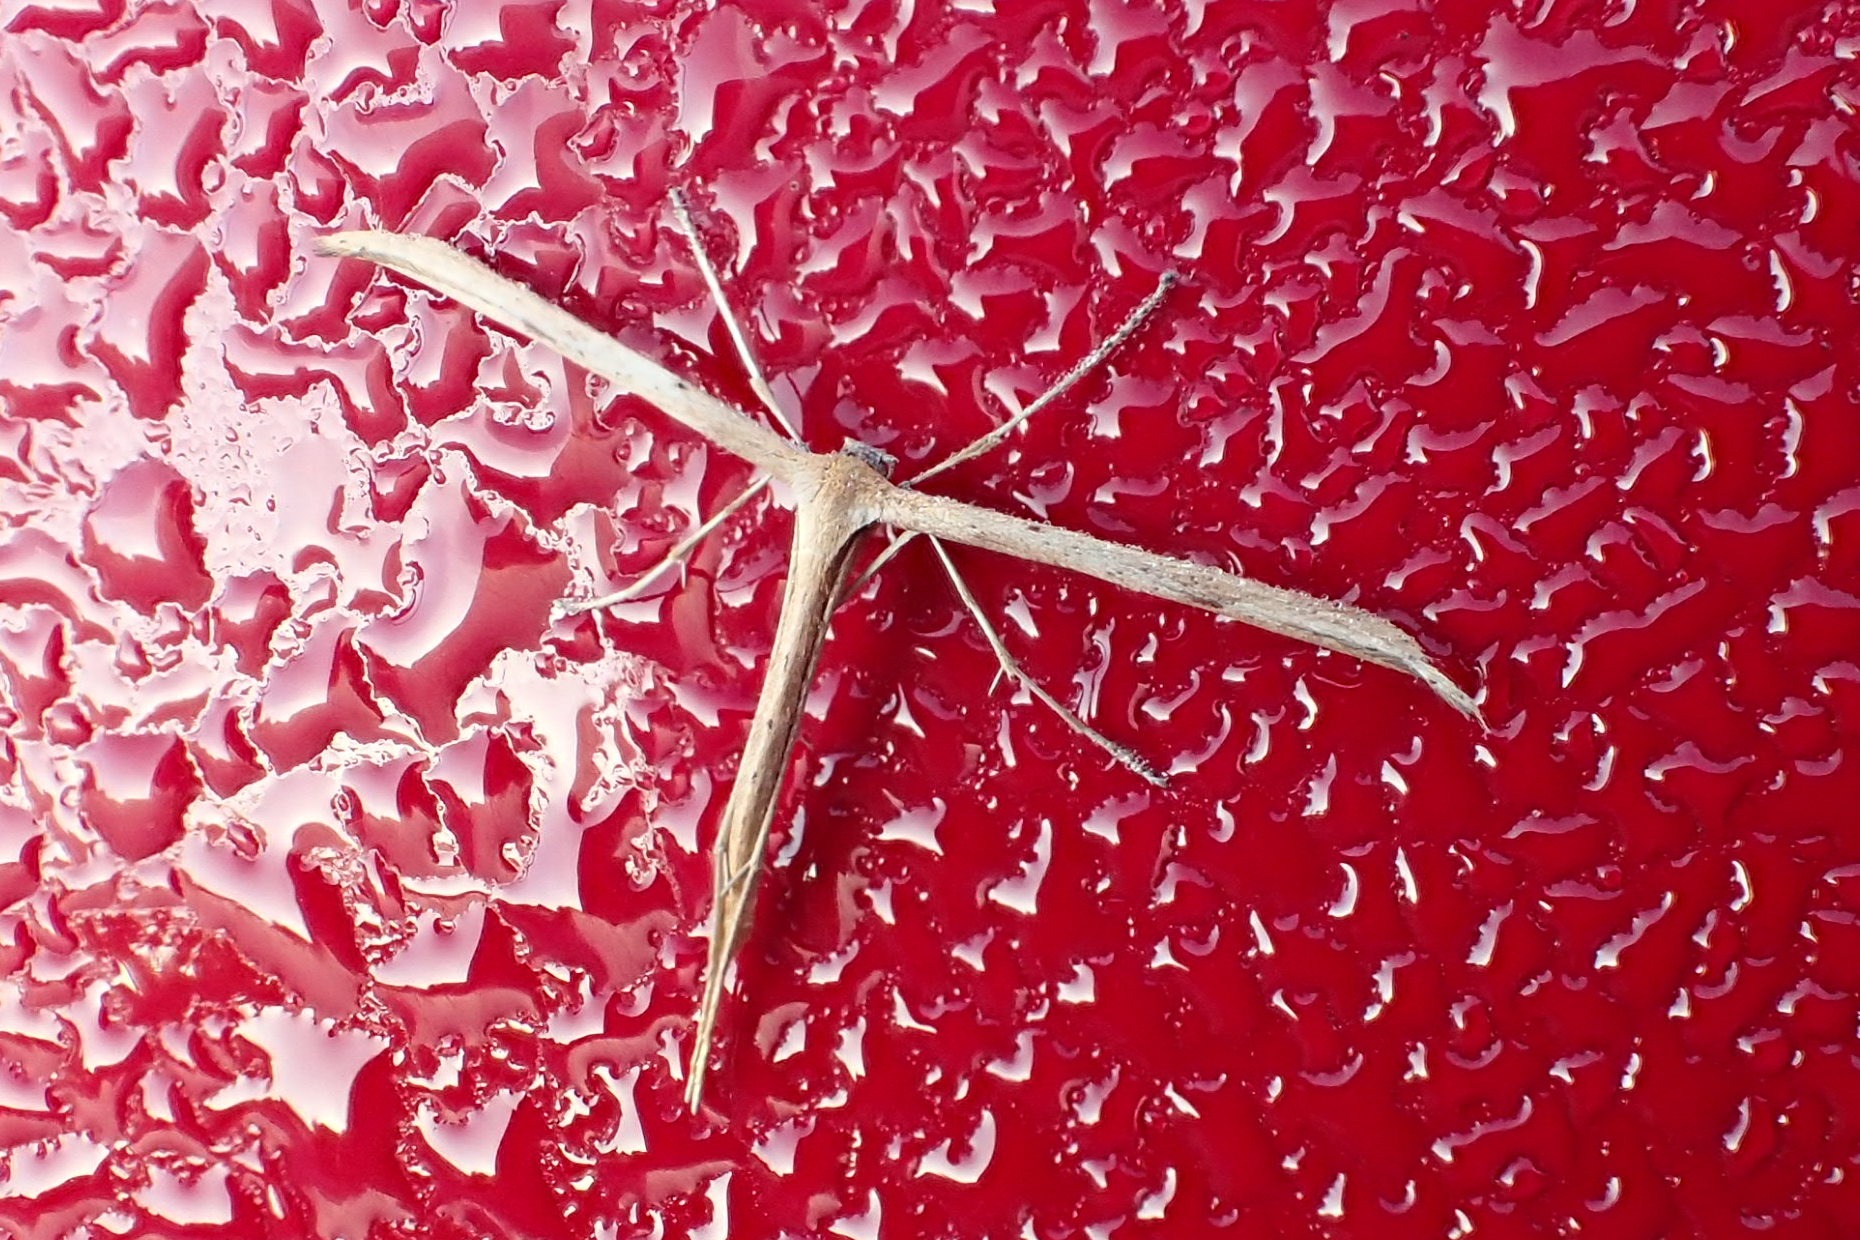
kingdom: Animalia
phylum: Arthropoda
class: Insecta
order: Lepidoptera
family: Pterophoridae
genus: Emmelina
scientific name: Emmelina monodactyla
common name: Snerlefjermøl
